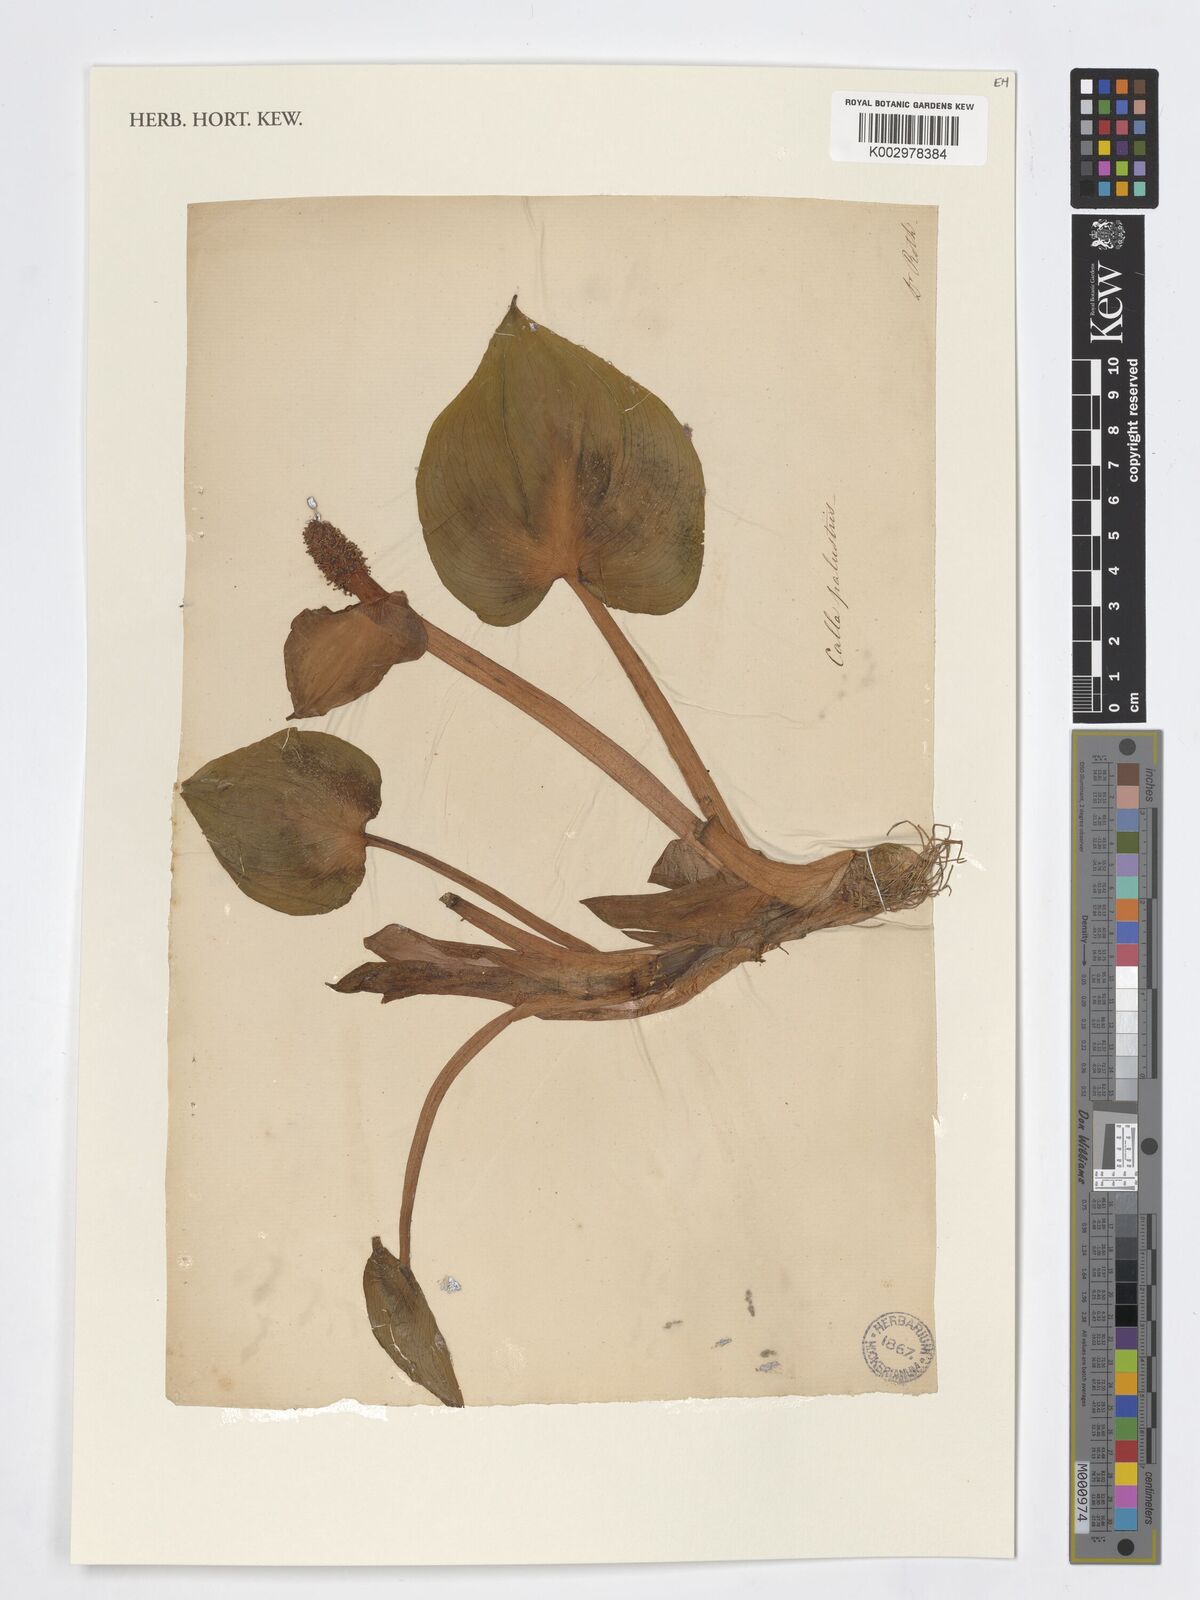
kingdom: Plantae
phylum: Tracheophyta
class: Liliopsida
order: Alismatales
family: Araceae
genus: Calla
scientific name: Calla palustris
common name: Bog arum
